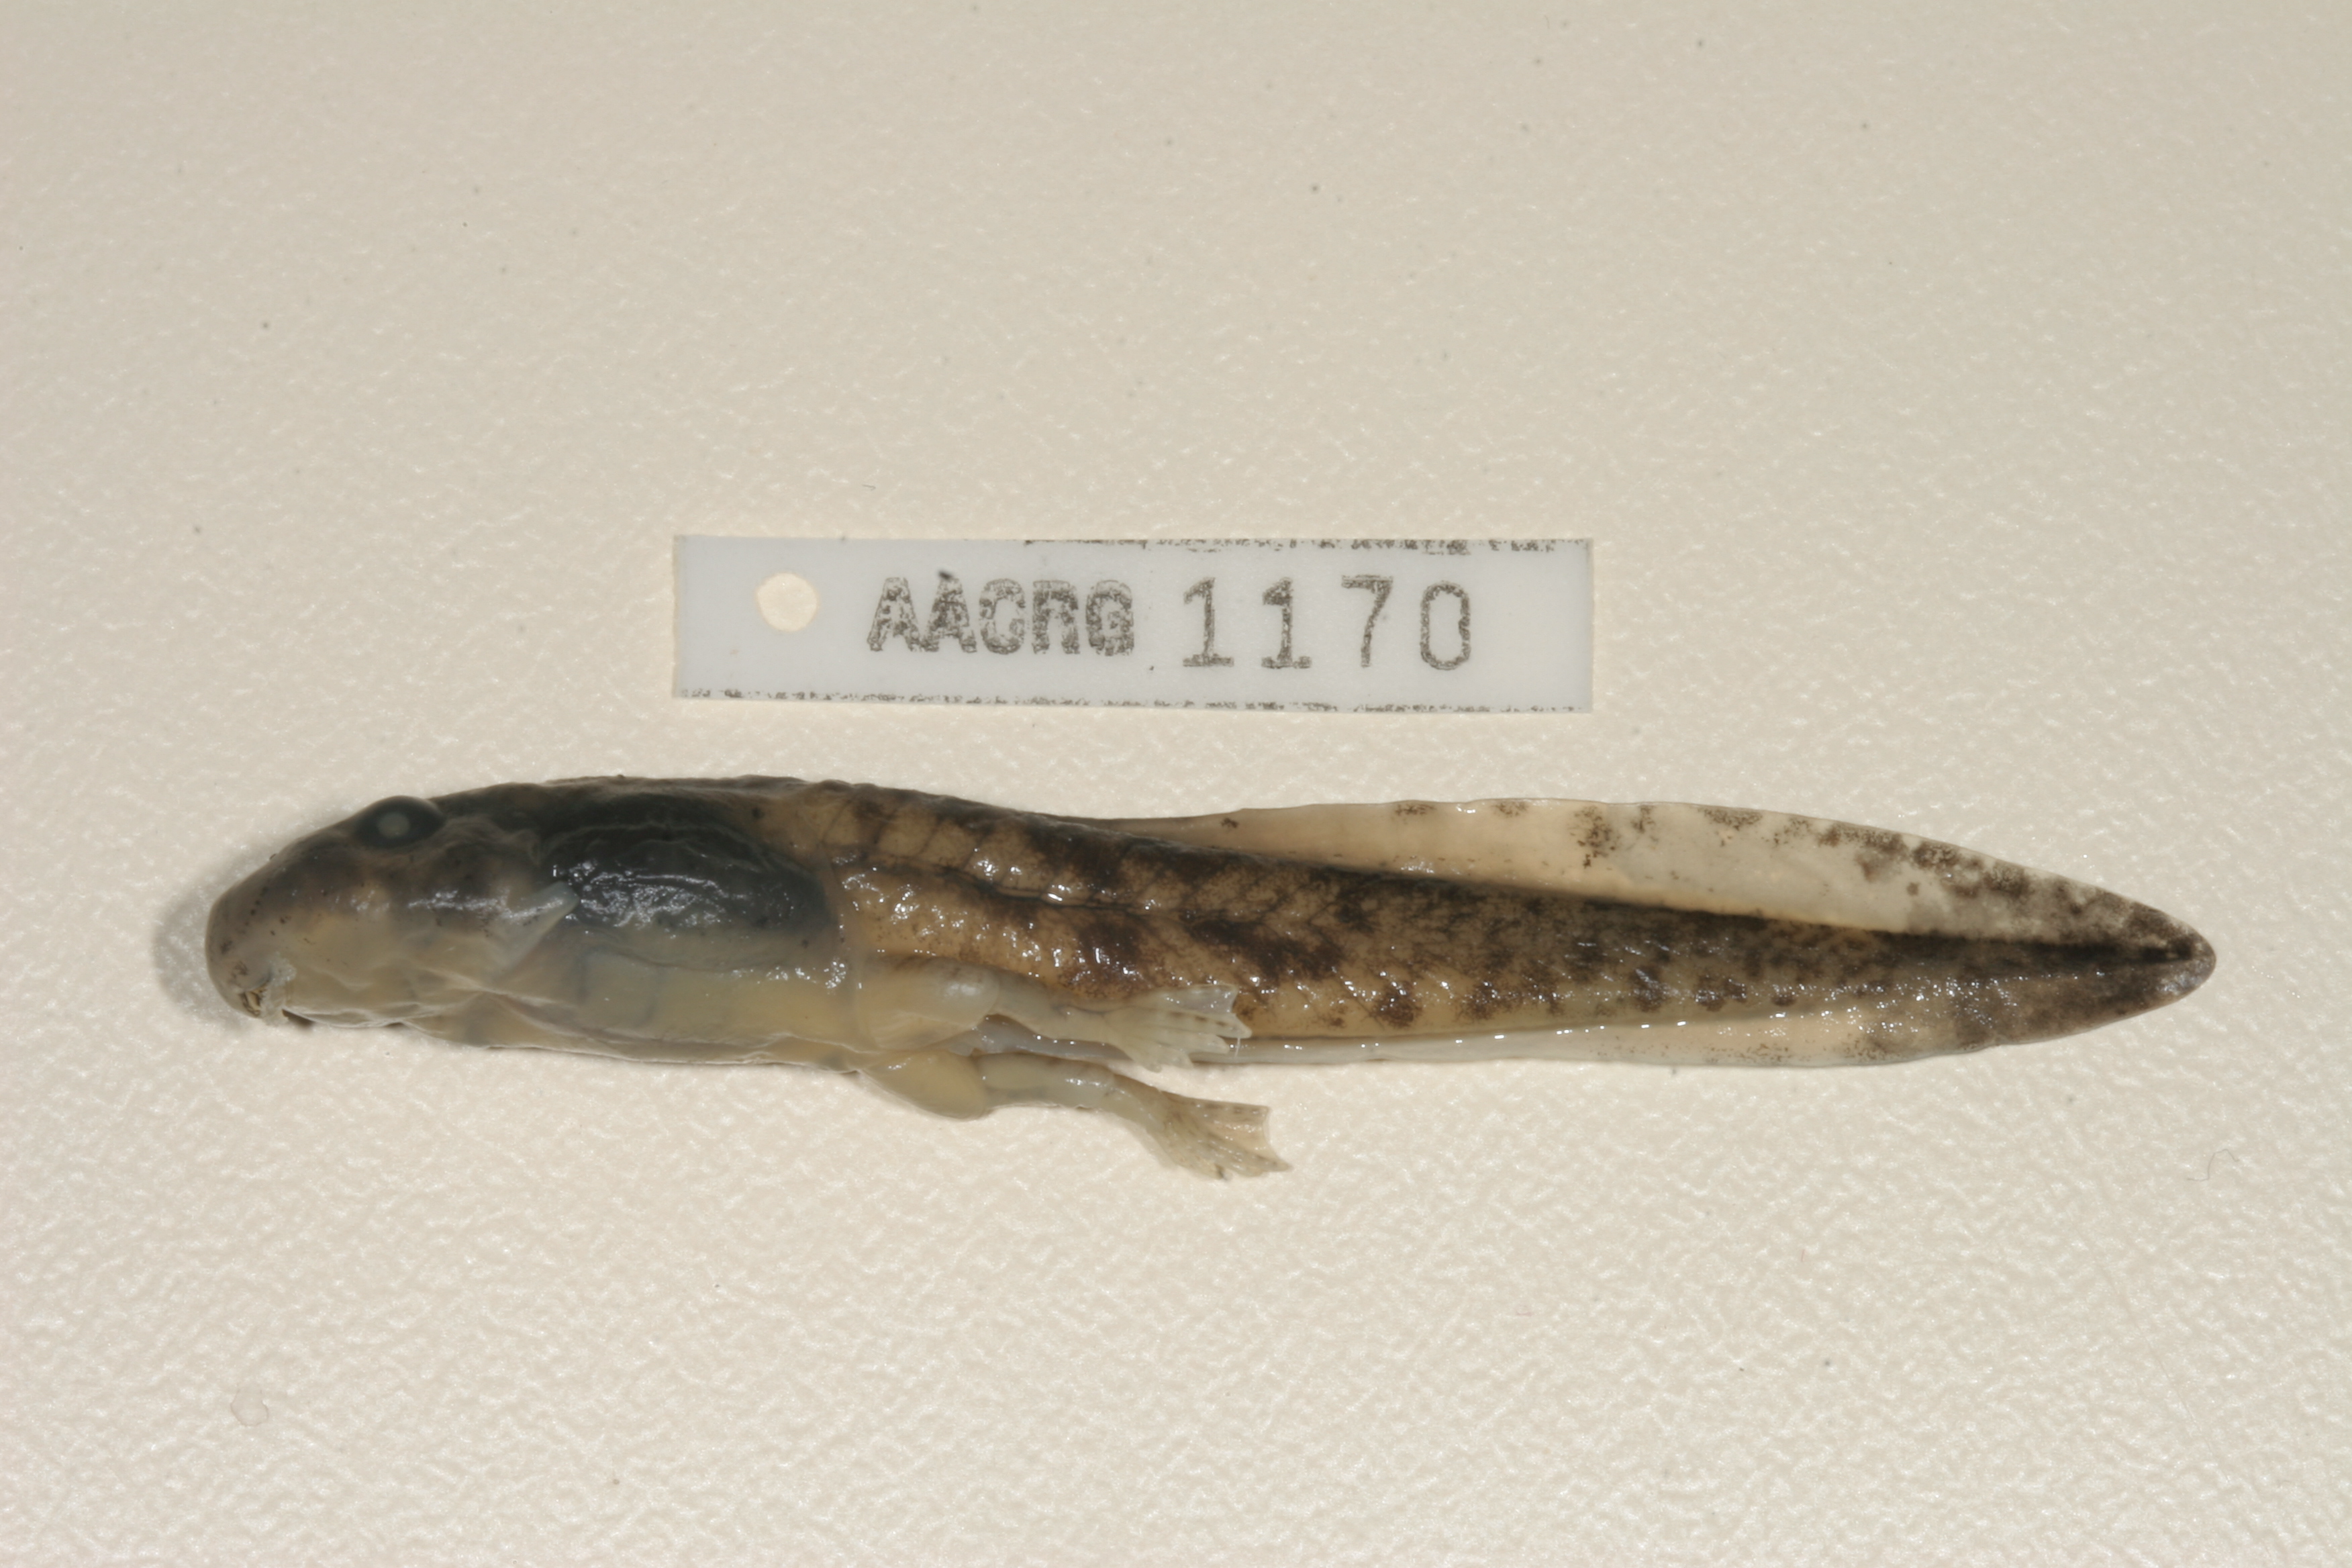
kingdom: Animalia
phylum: Chordata
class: Amphibia
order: Anura
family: Pyxicephalidae
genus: Amietia
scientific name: Amietia vertebralis
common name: Drakensberg stream frog
